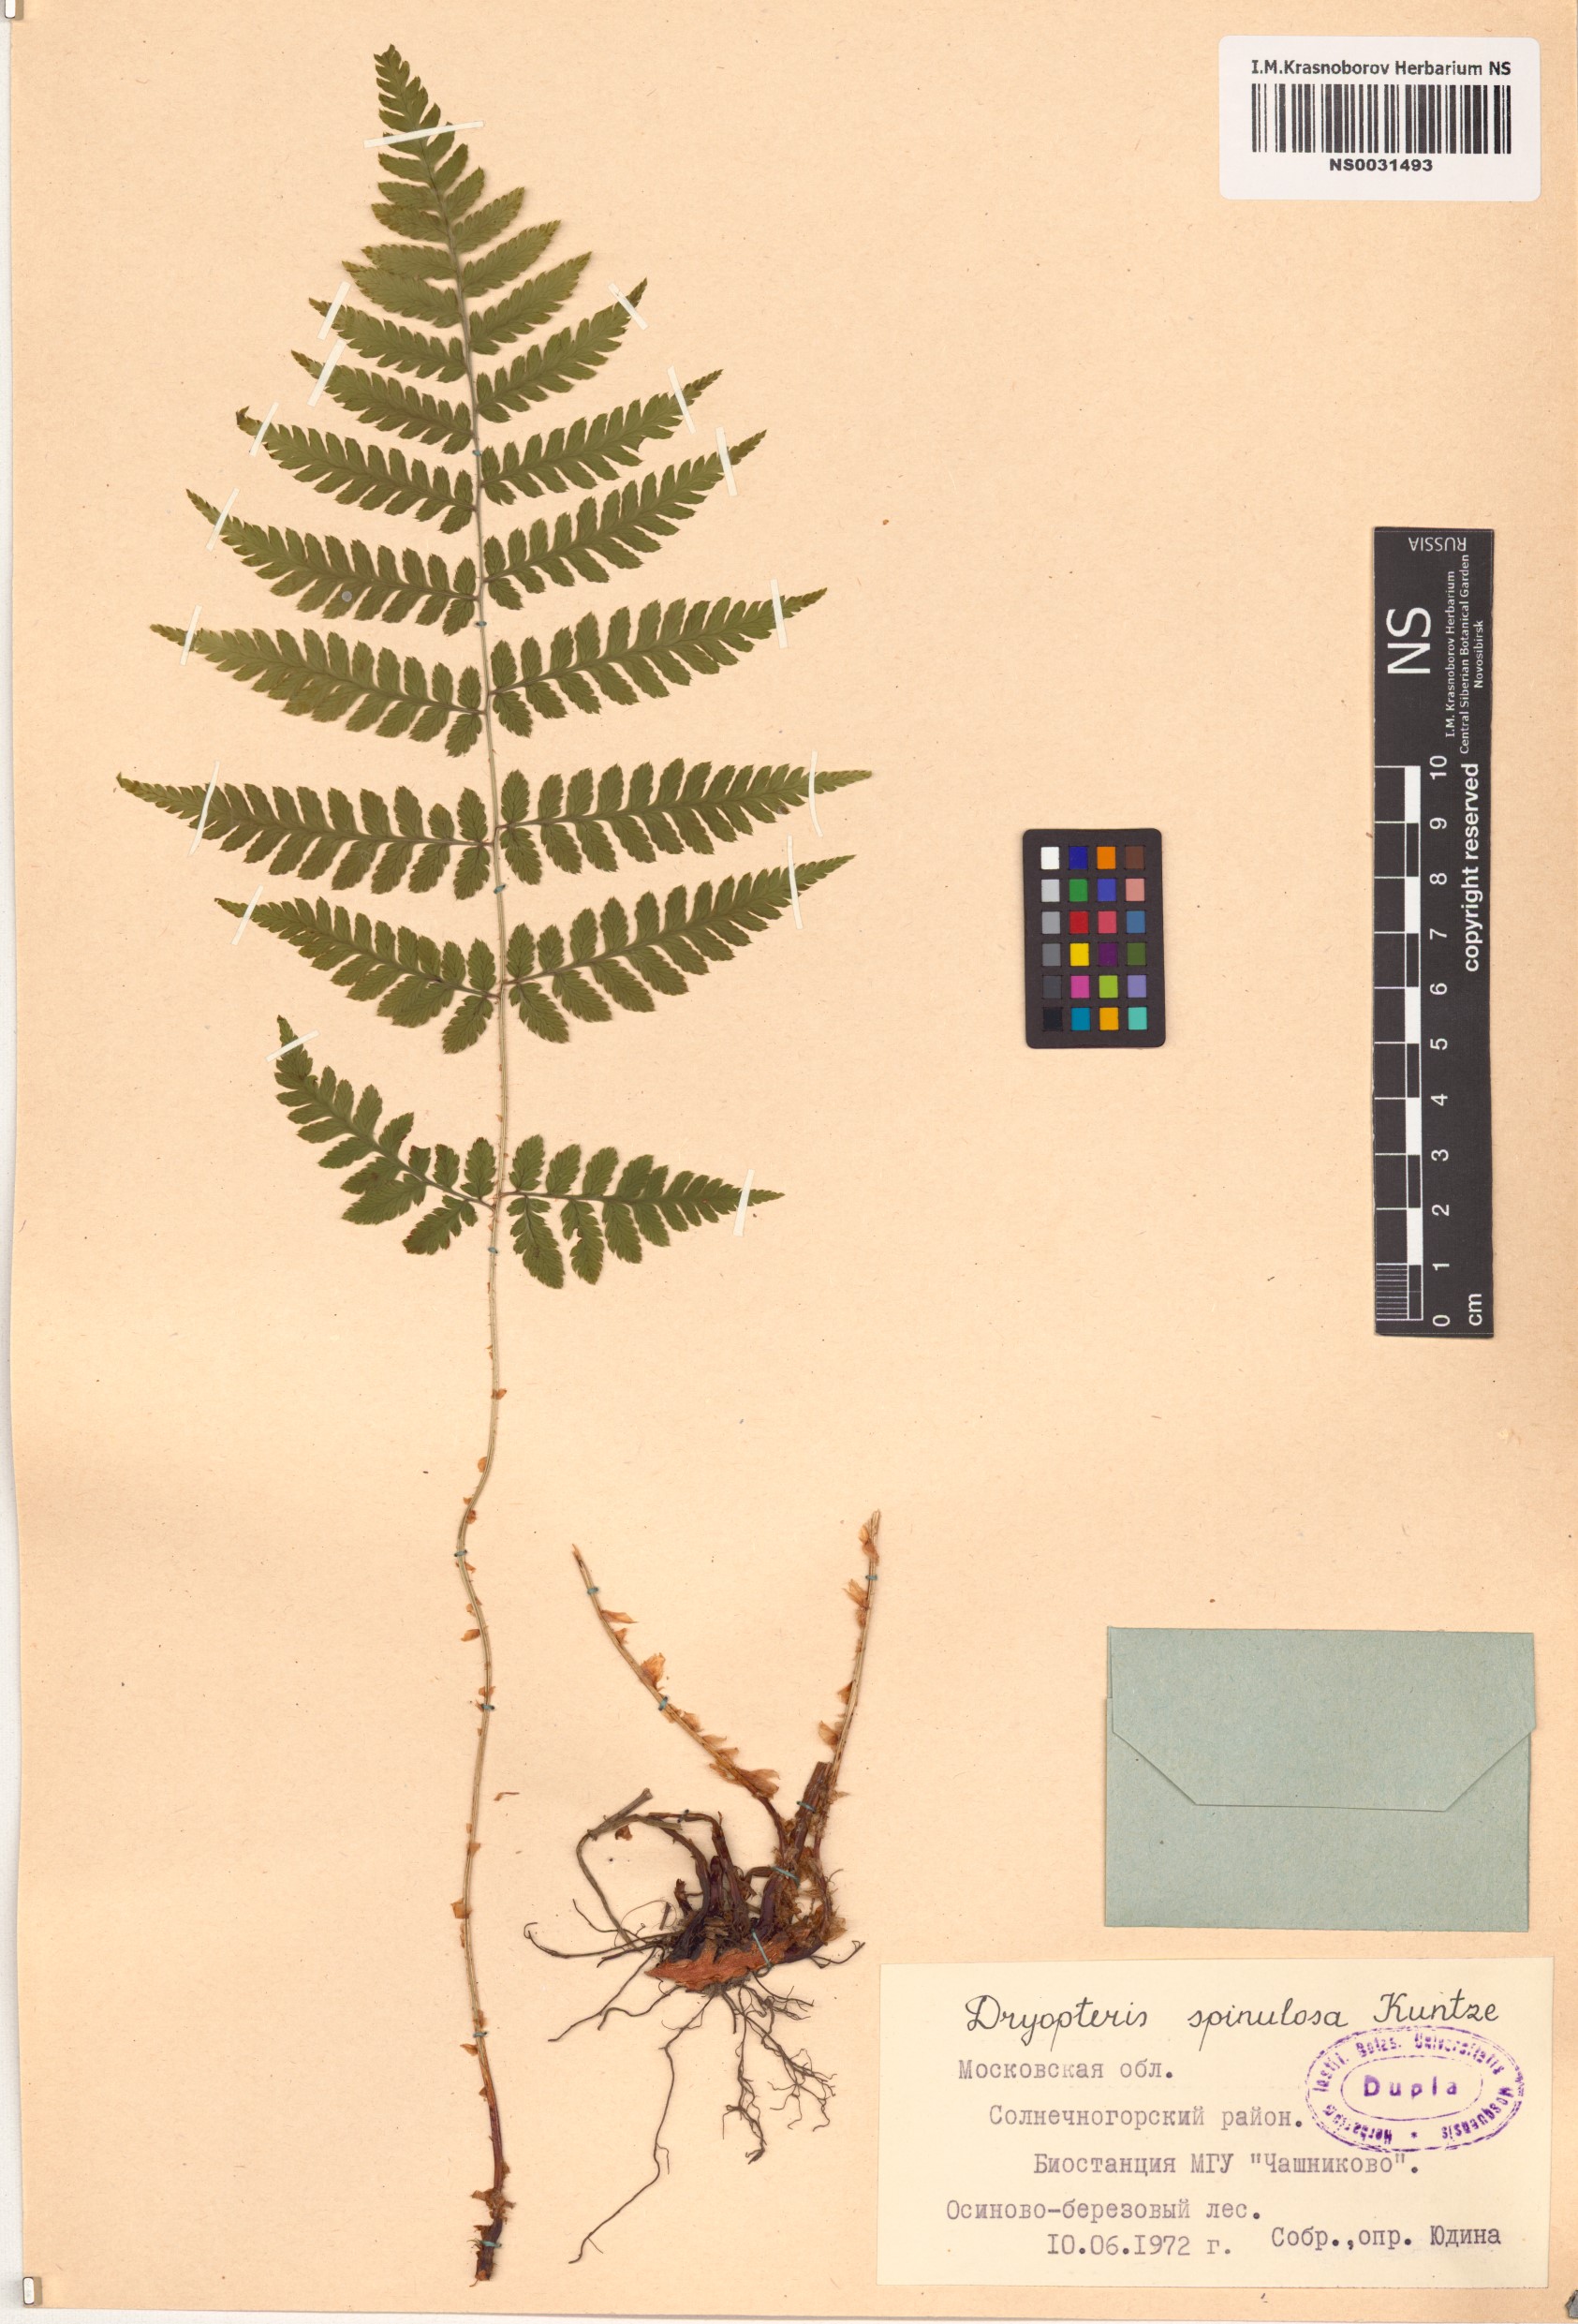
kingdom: Plantae
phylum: Tracheophyta
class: Polypodiopsida
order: Polypodiales
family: Dryopteridaceae
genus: Dryopteris
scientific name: Dryopteris carthusiana
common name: Narrow buckler-fern
